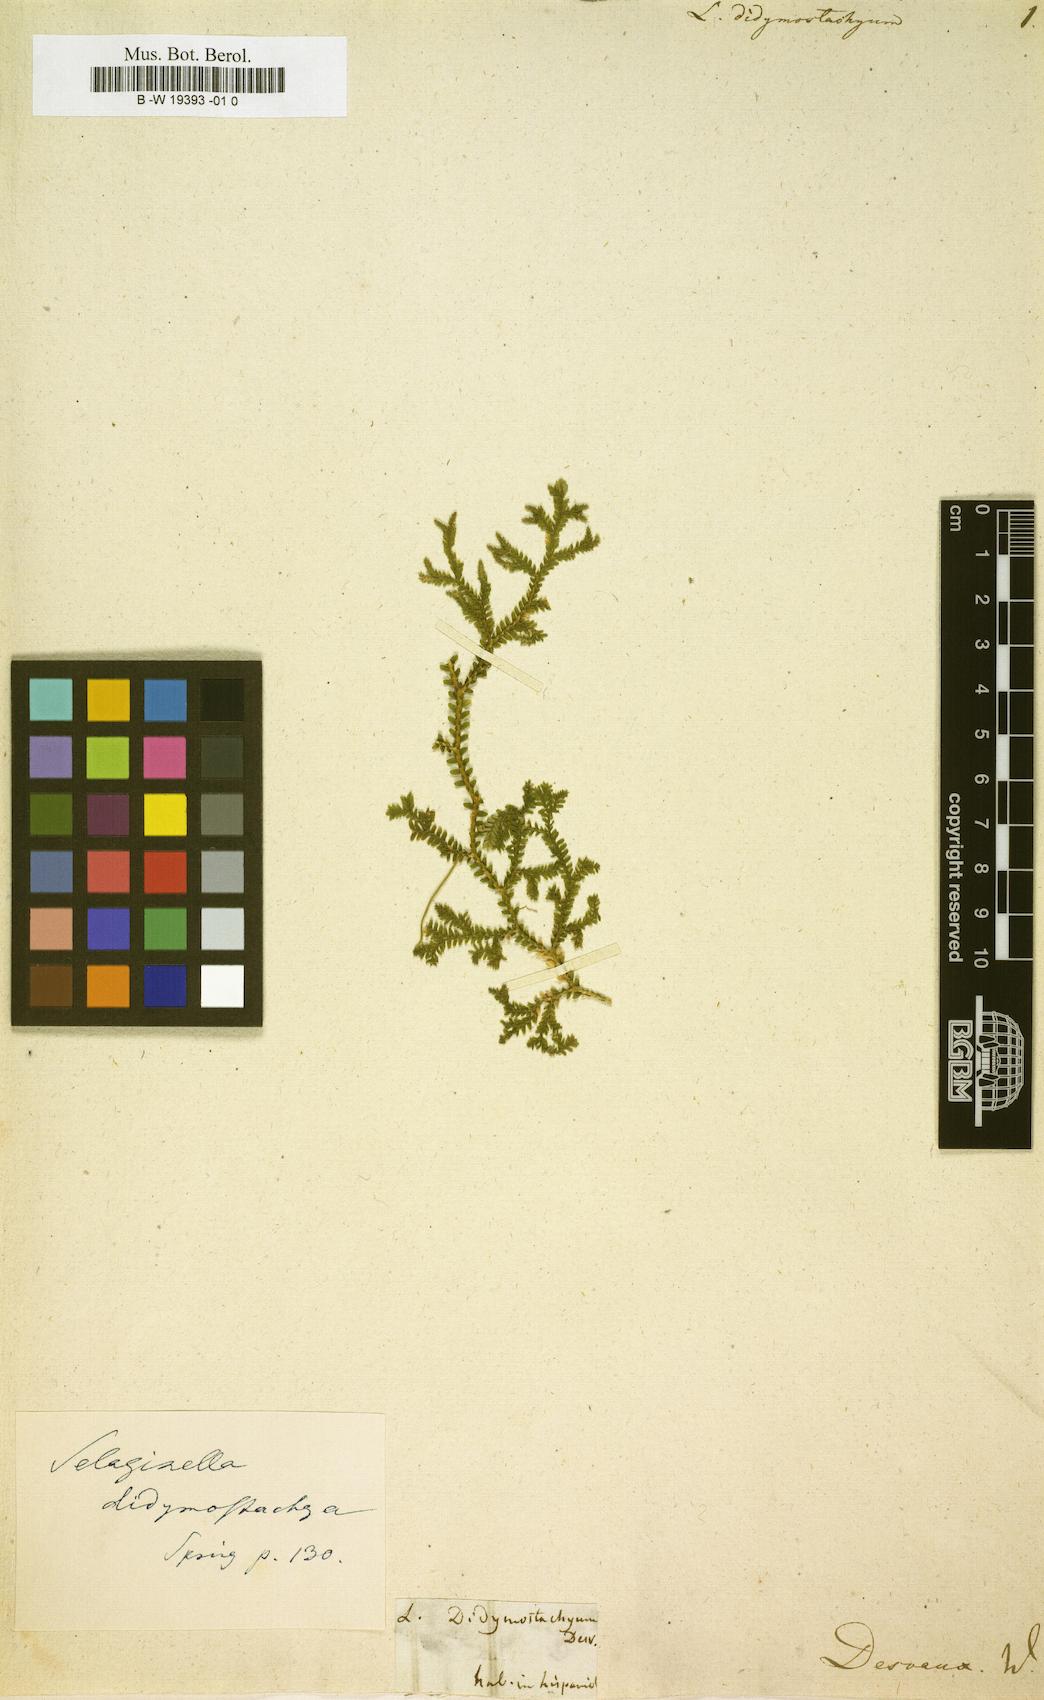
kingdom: Plantae
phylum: Tracheophyta
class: Lycopodiopsida
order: Selaginellales
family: Selaginellaceae
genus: Selaginella
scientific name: Selaginella denudata
